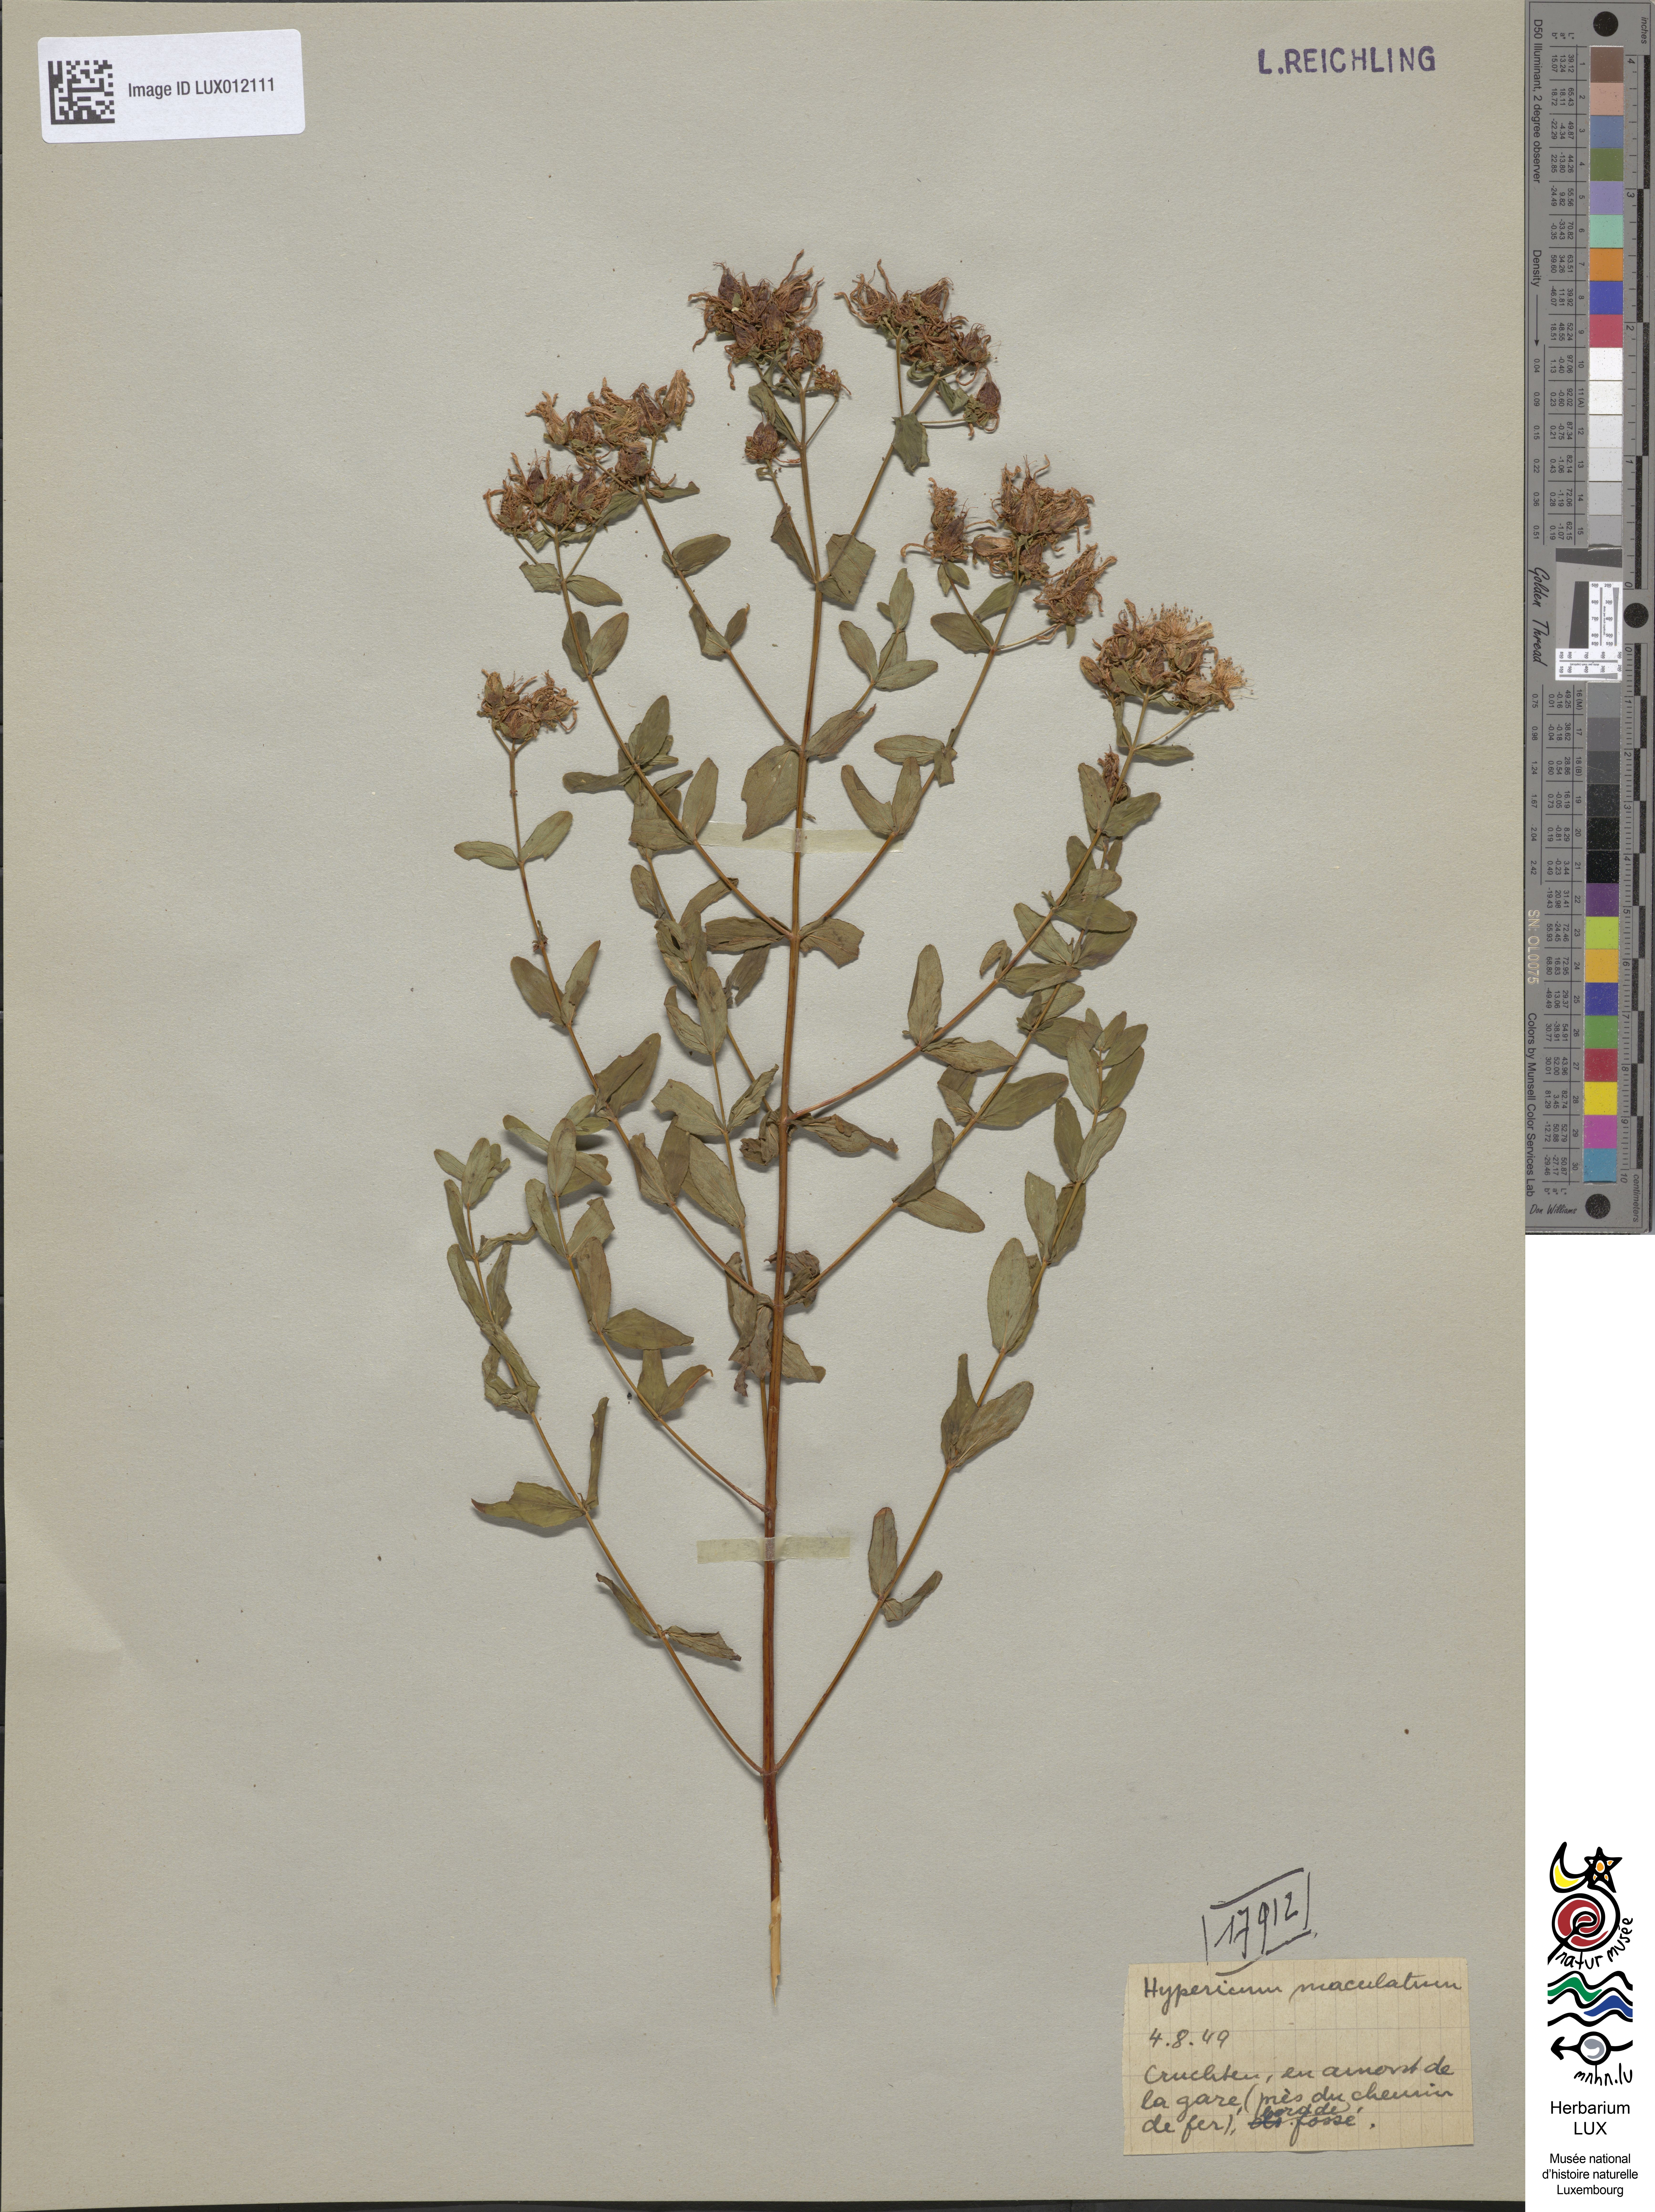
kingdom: Plantae
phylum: Tracheophyta
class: Magnoliopsida
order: Malpighiales
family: Hypericaceae
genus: Hypericum
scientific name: Hypericum maculatum
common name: Imperforate st. john's-wort
